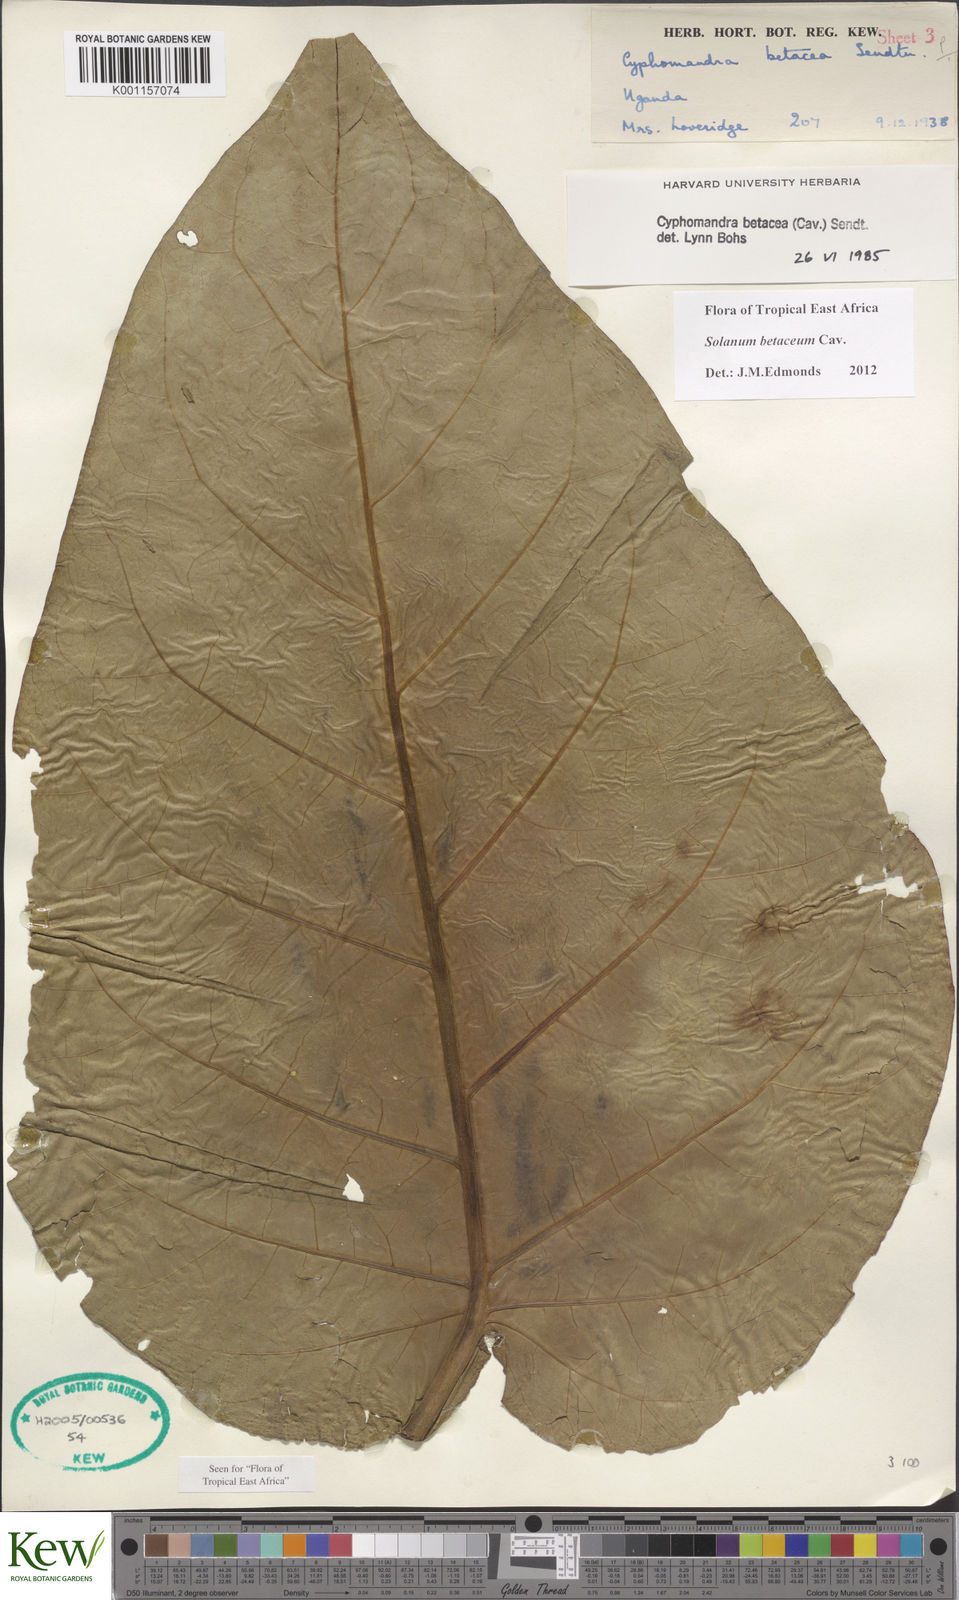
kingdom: Plantae
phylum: Tracheophyta
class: Magnoliopsida
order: Solanales
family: Solanaceae
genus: Solanum
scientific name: Solanum betaceum
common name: Tamarillo
